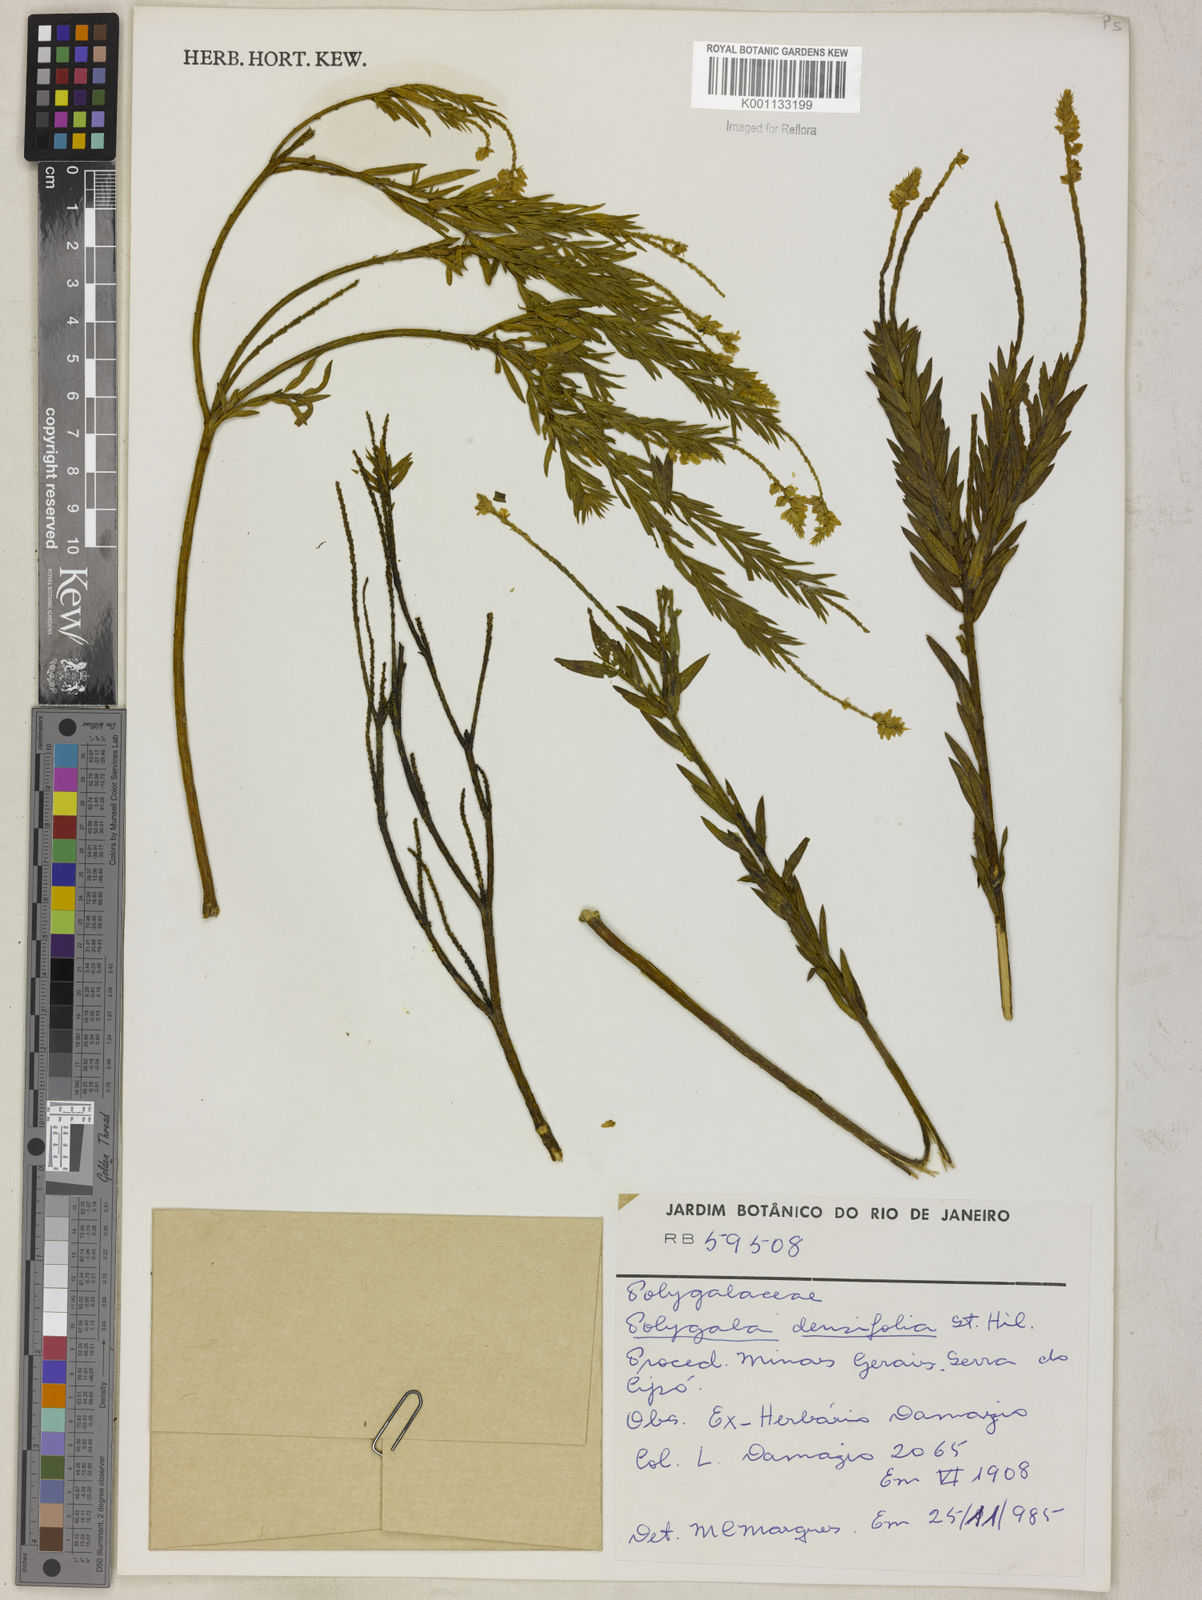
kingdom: Plantae
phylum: Tracheophyta
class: Magnoliopsida
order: Fabales
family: Polygalaceae
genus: Polygala
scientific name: Polygala densifolia
